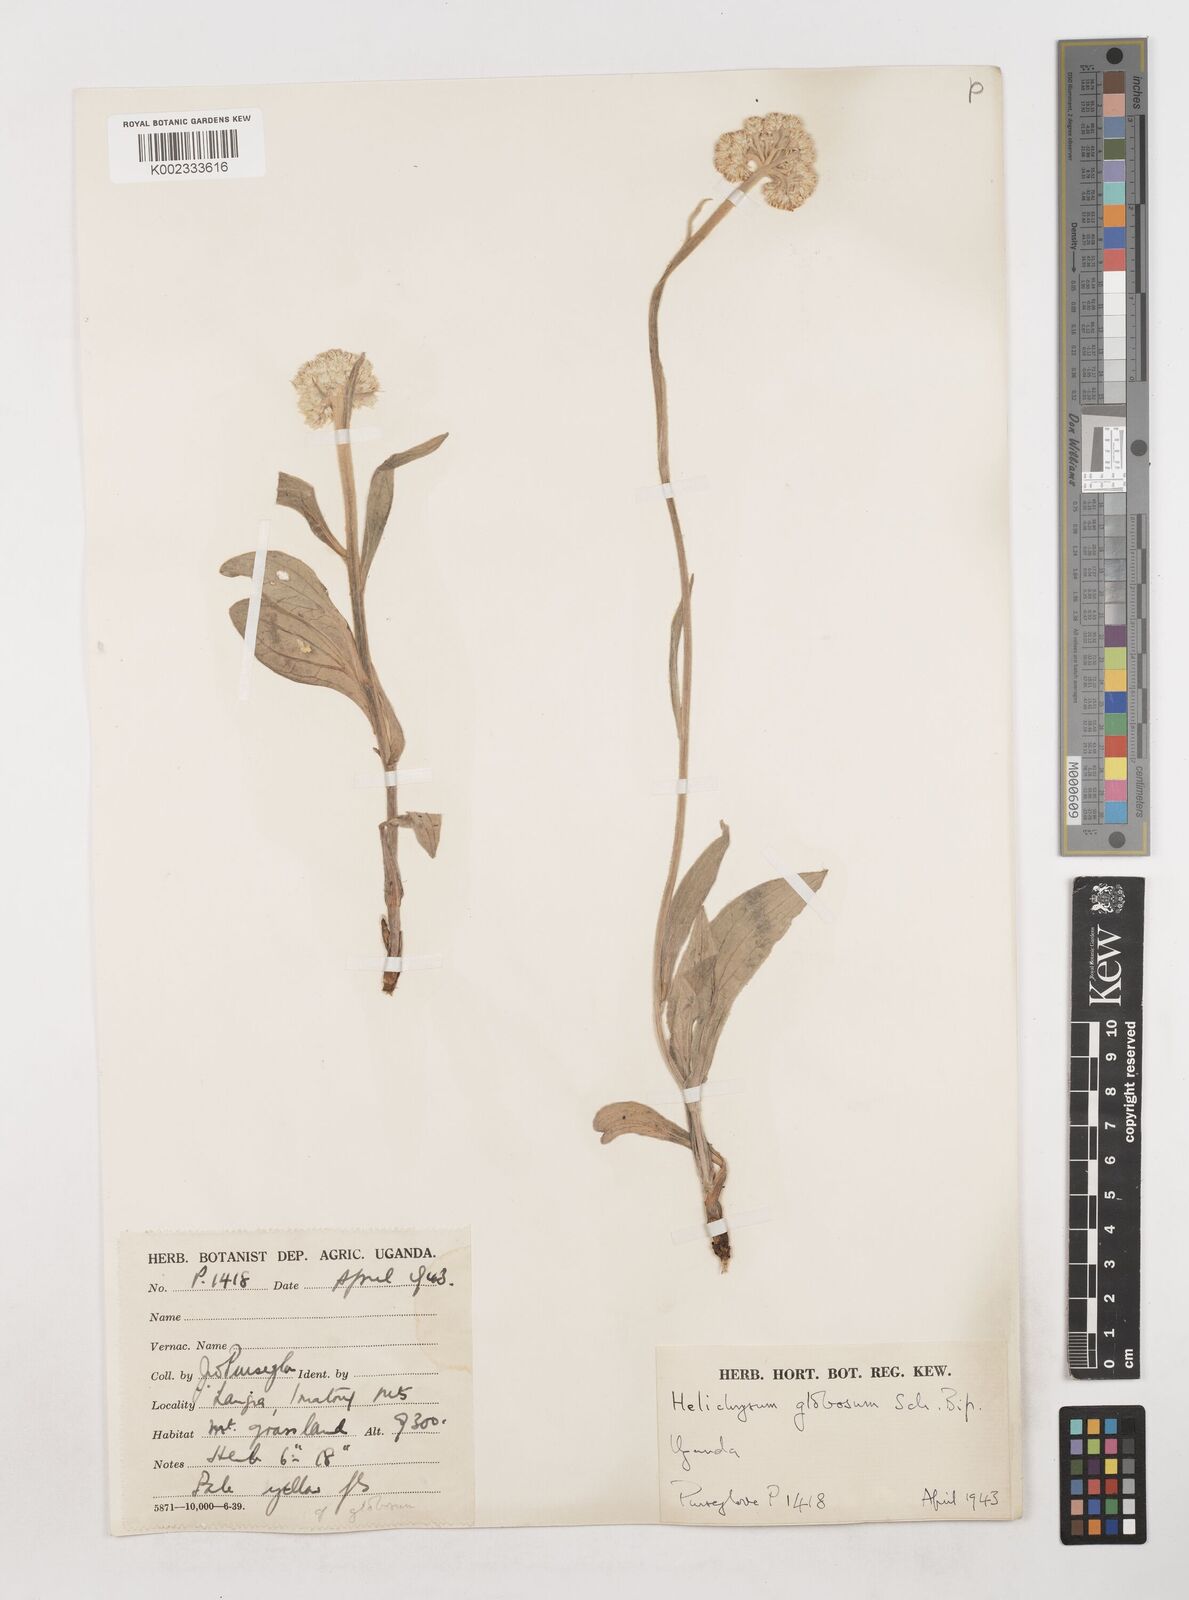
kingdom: Plantae
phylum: Tracheophyta
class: Magnoliopsida
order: Asterales
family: Asteraceae
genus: Helichrysum
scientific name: Helichrysum globosum
